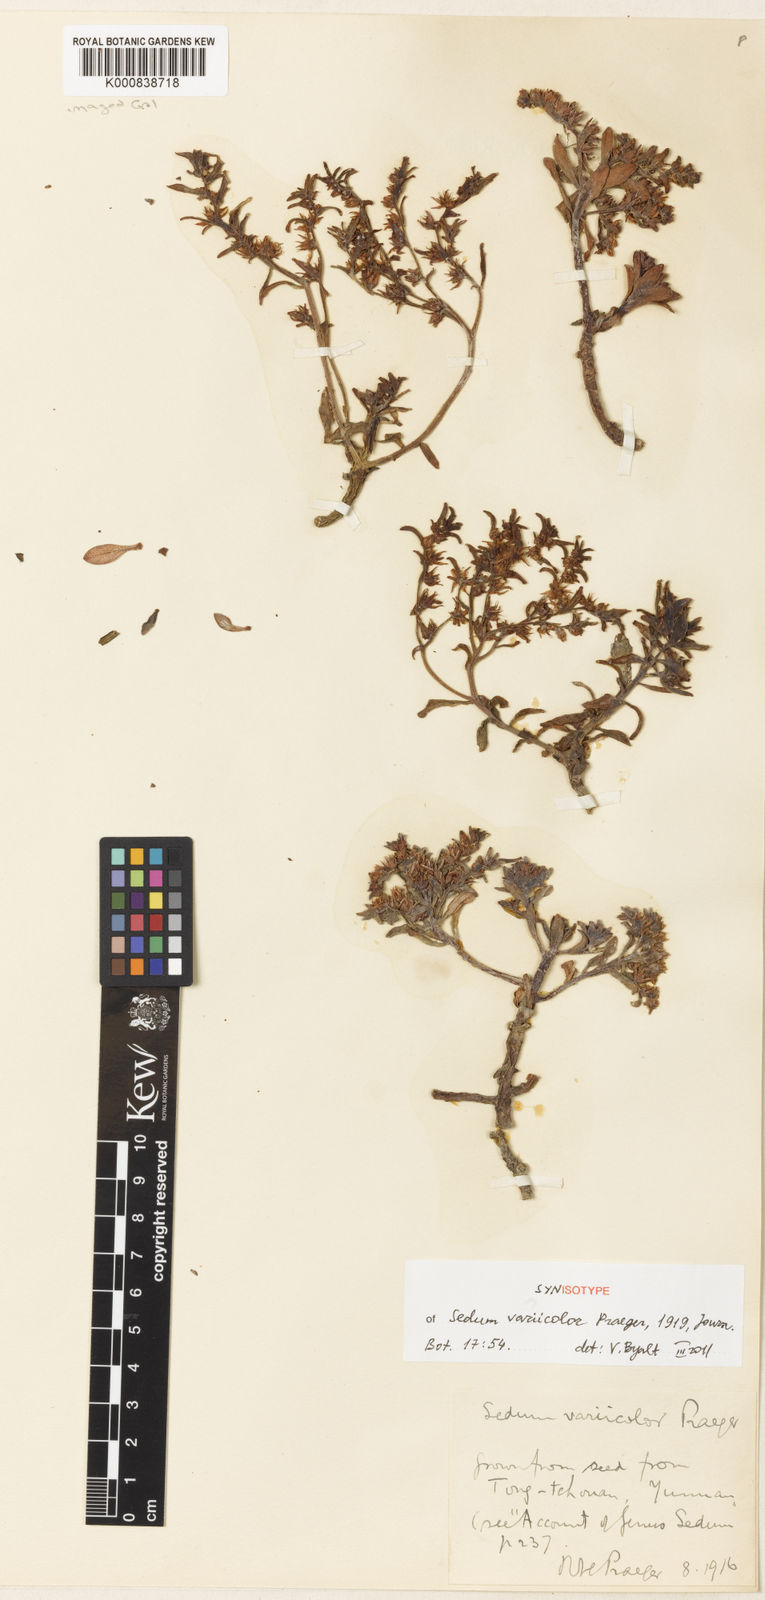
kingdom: Plantae
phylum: Tracheophyta
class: Magnoliopsida
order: Saxifragales
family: Crassulaceae
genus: Sedum
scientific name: Sedum leucocarpum
